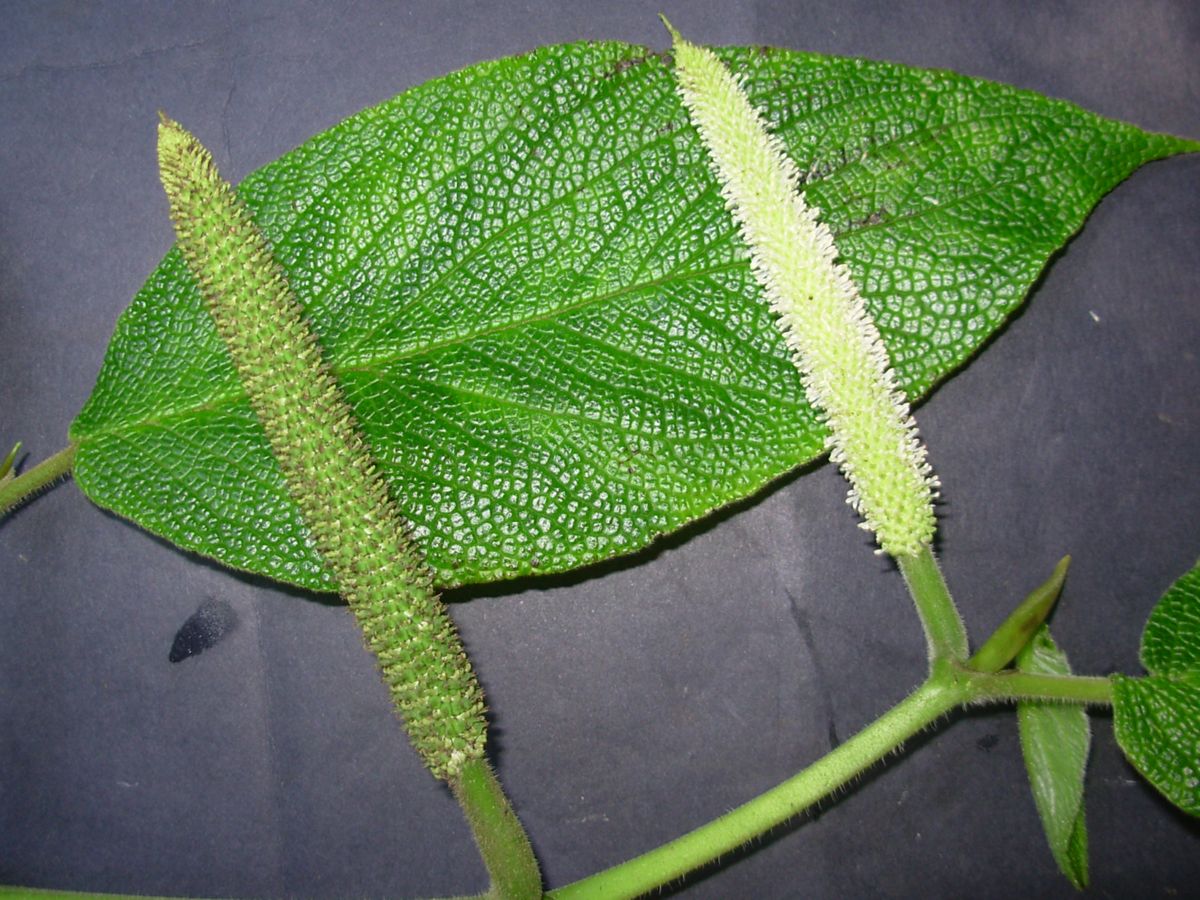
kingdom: Plantae
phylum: Tracheophyta
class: Magnoliopsida
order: Piperales
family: Piperaceae
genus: Piper
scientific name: Piper lacunosum
